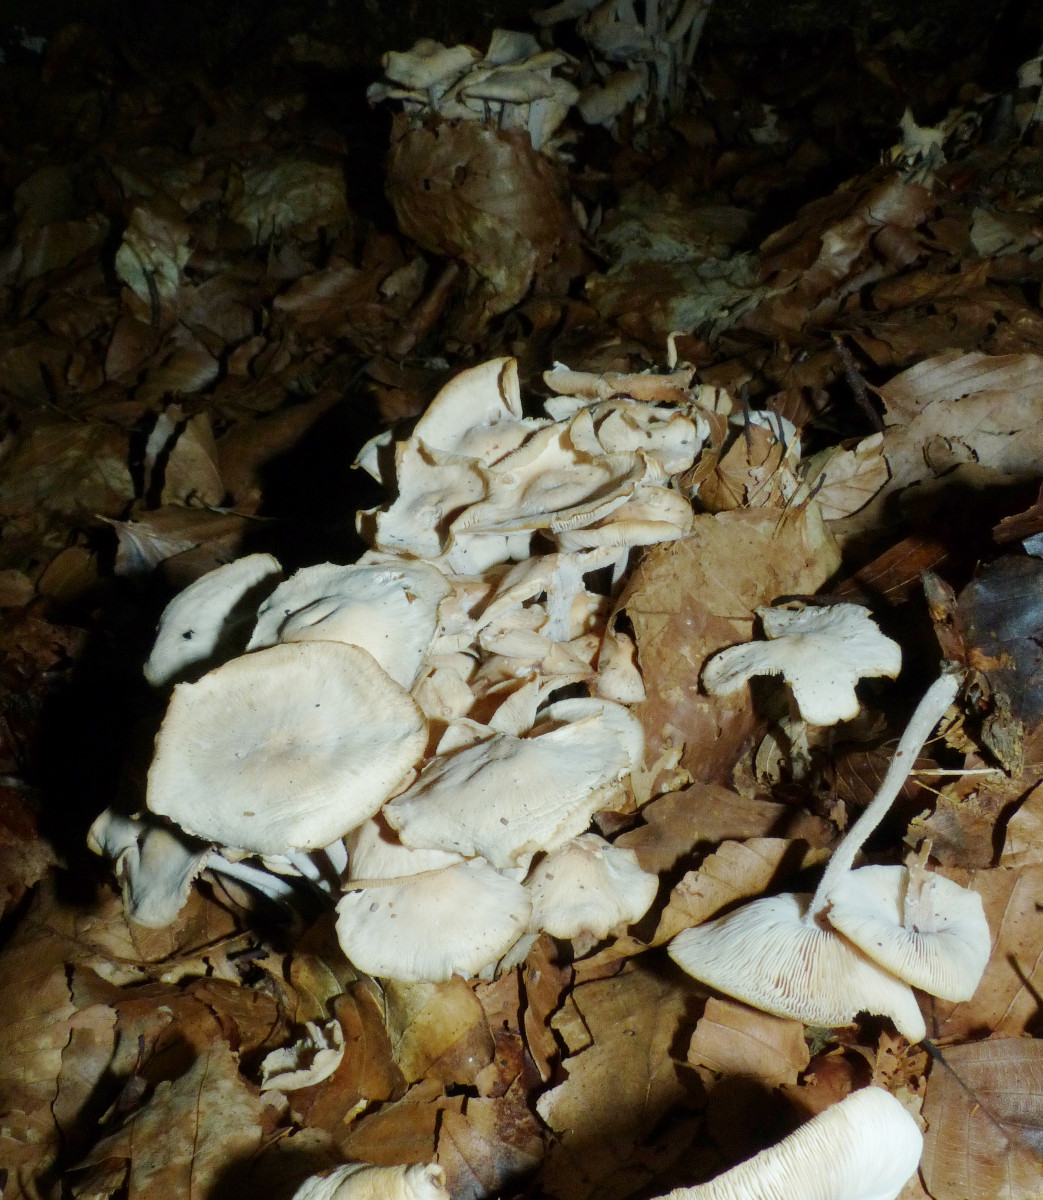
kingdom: Fungi
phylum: Basidiomycota
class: Agaricomycetes
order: Agaricales
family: Omphalotaceae
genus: Collybiopsis
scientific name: Collybiopsis confluens
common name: knippe-fladhat
